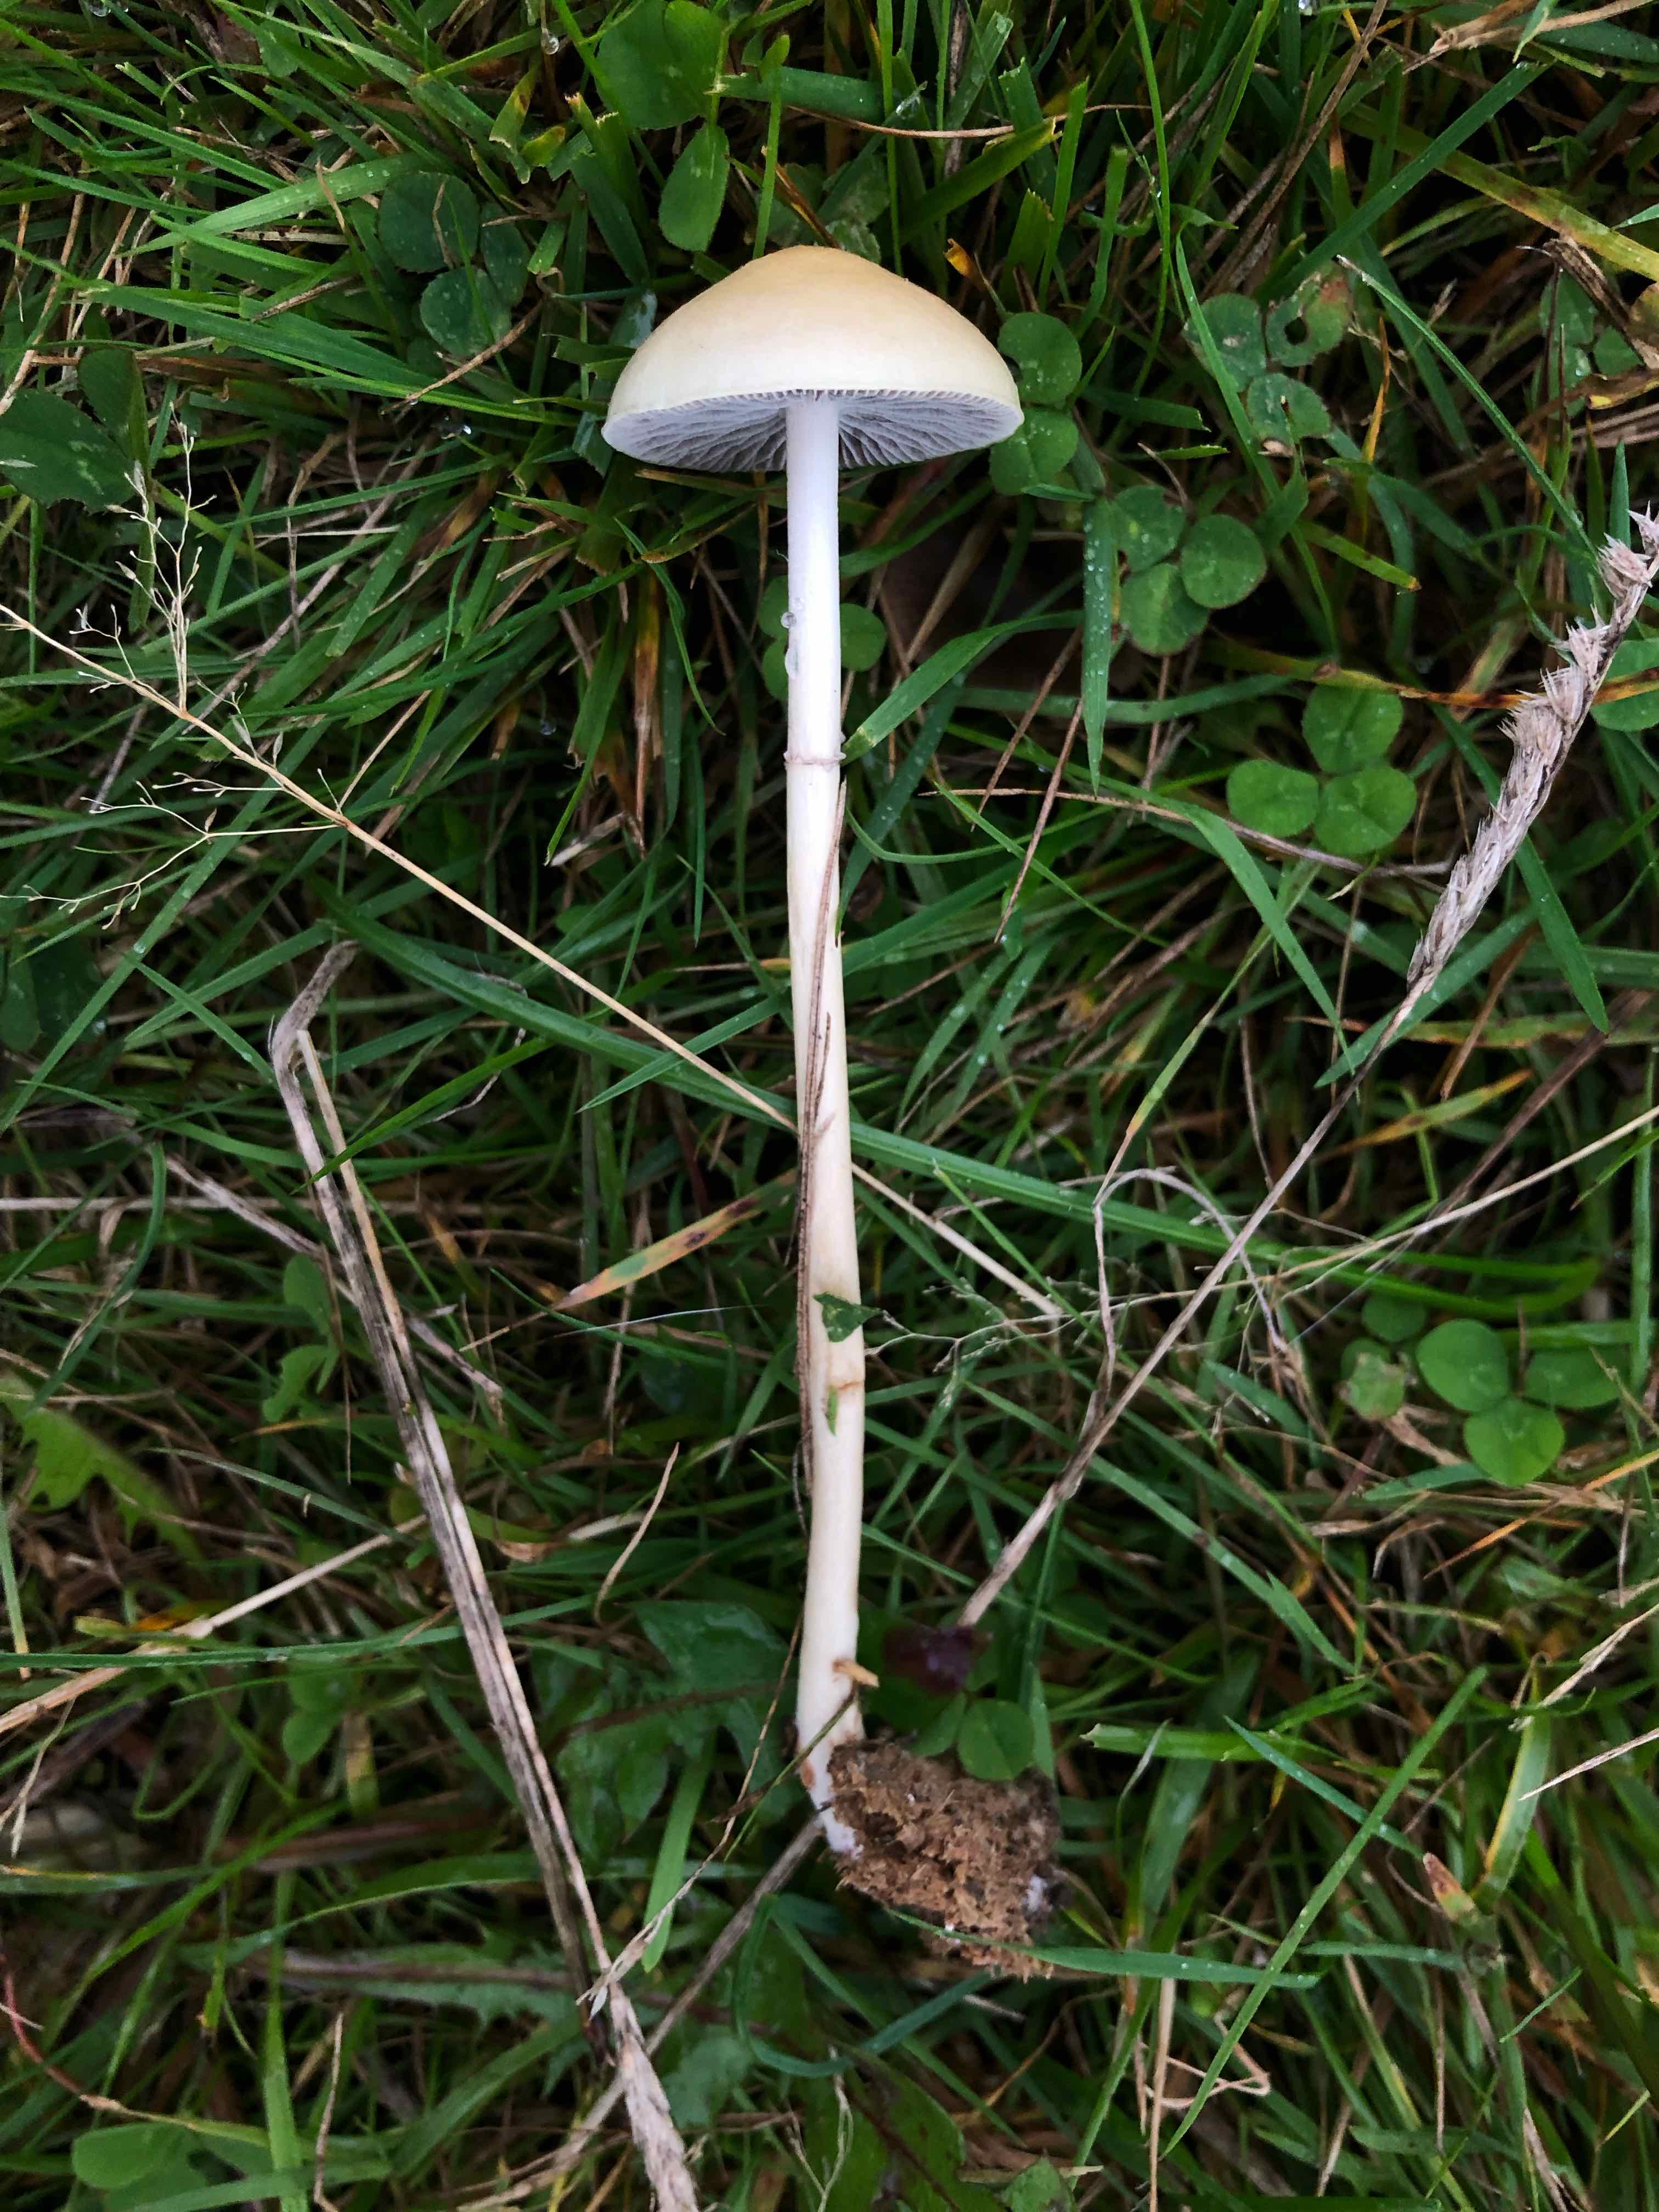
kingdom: Fungi
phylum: Basidiomycota
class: Agaricomycetes
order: Agaricales
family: Strophariaceae
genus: Protostropharia
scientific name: Protostropharia semiglobata
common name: halvkugleformet bredblad
